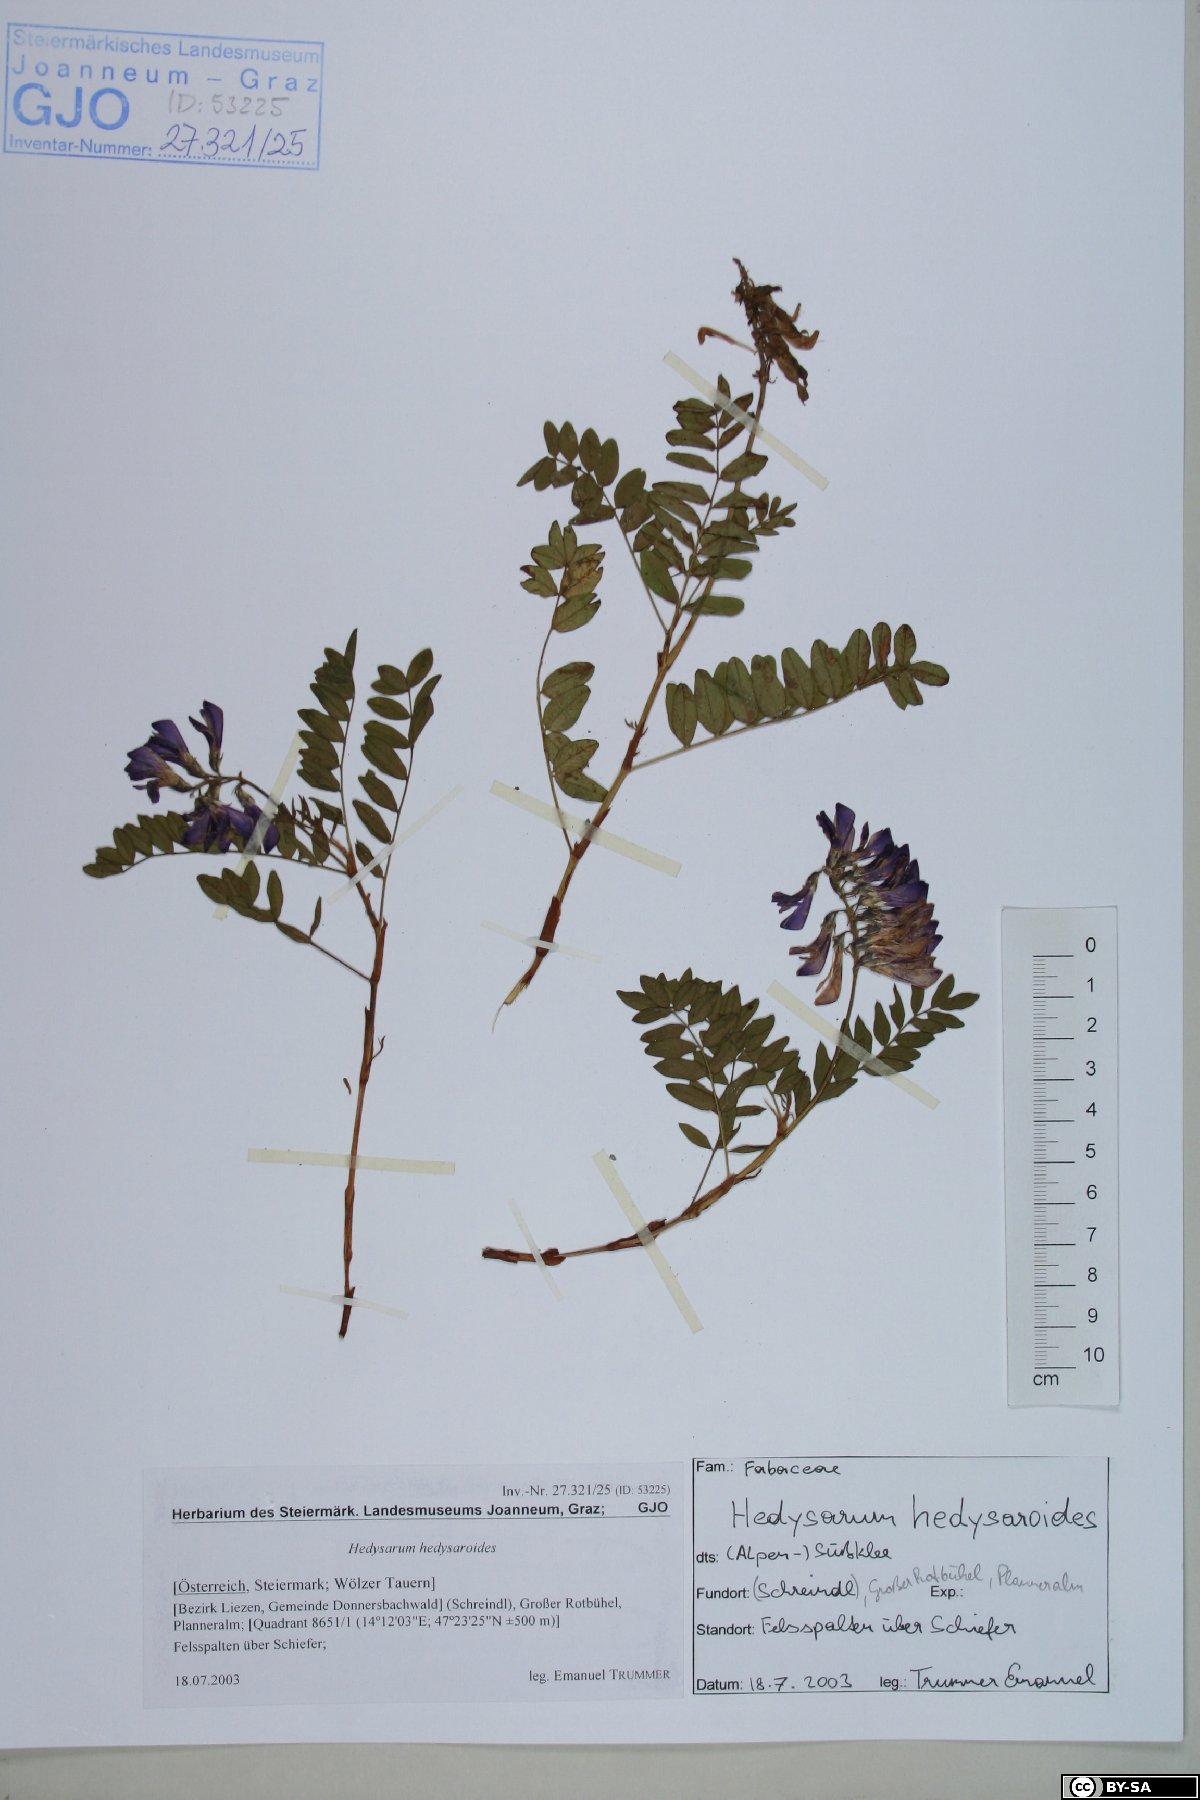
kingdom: Plantae
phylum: Tracheophyta
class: Magnoliopsida
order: Fabales
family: Fabaceae
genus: Hedysarum
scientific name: Hedysarum hedysaroides
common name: Alpine french-honeysuckle
